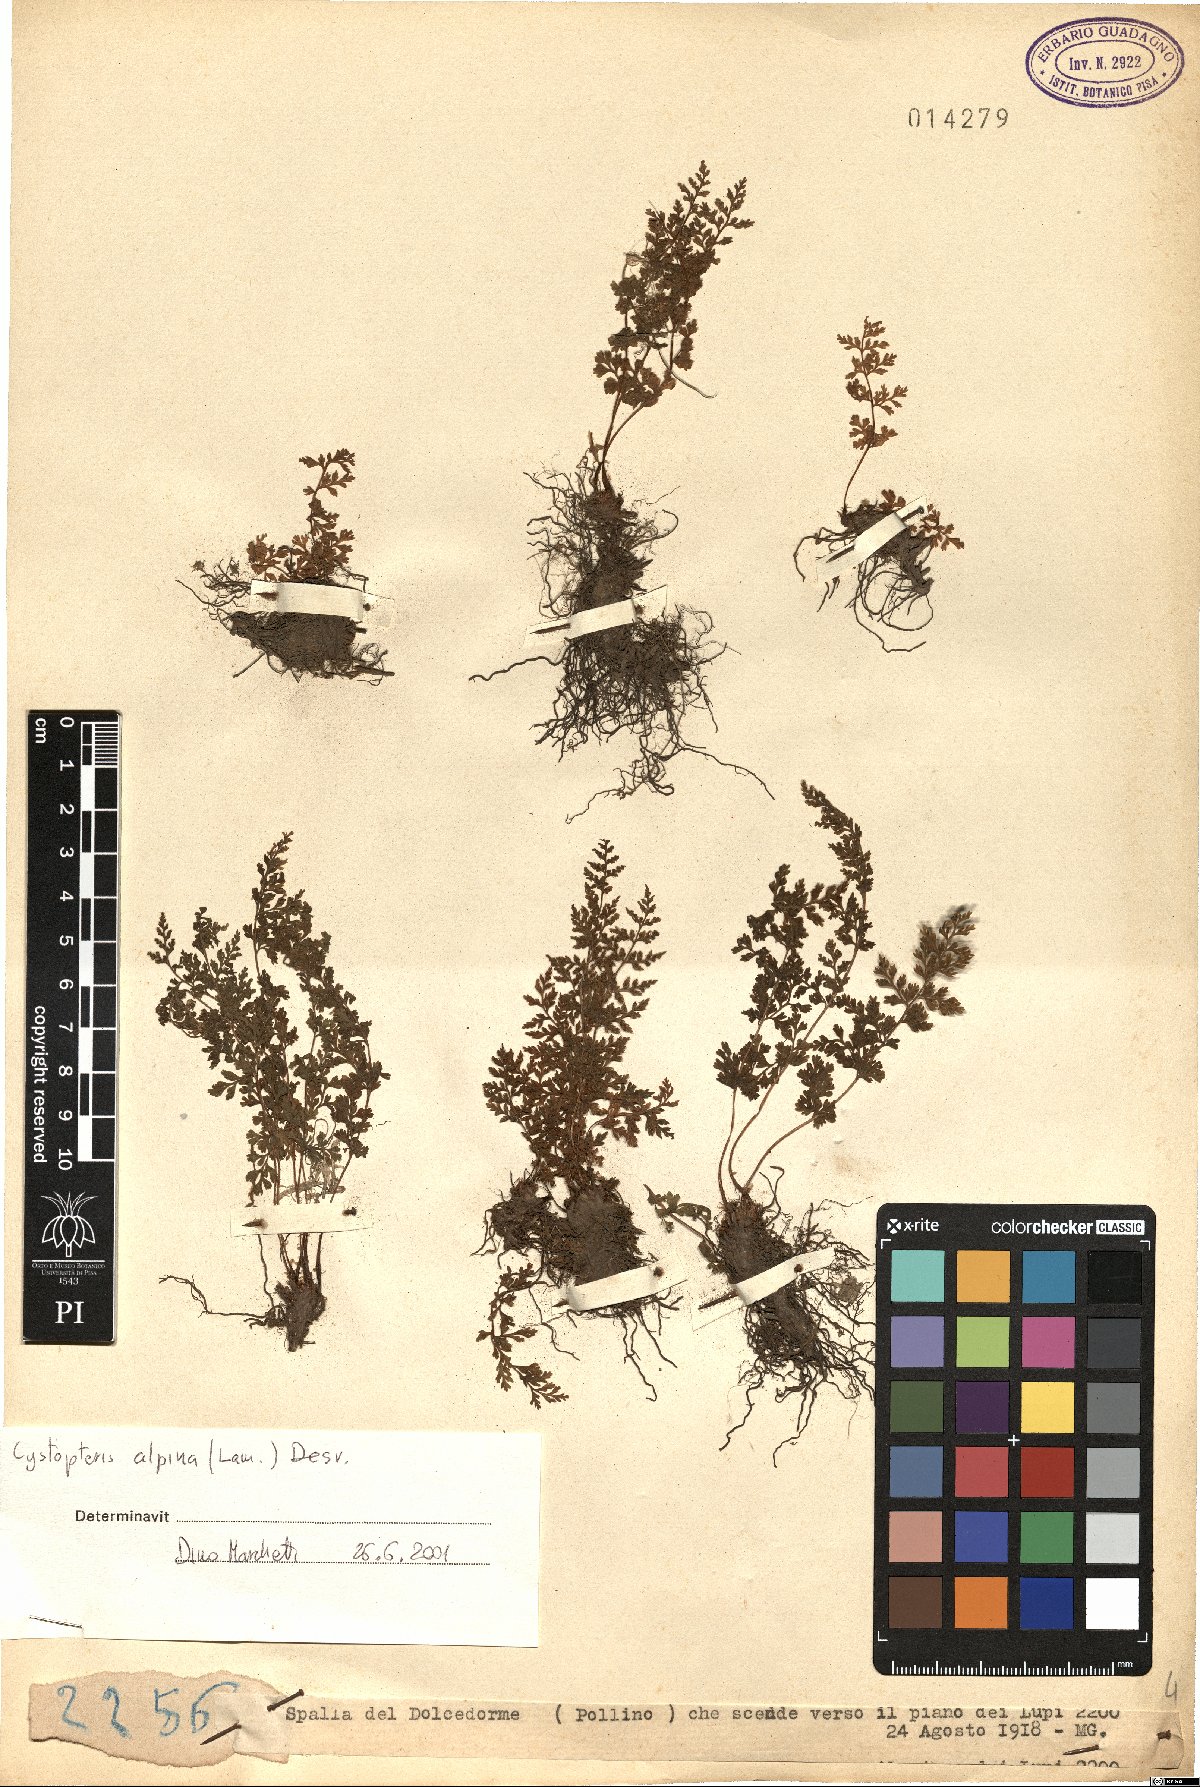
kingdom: Plantae
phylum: Tracheophyta
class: Polypodiopsida
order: Polypodiales
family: Cystopteridaceae
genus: Cystopteris
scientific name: Cystopteris alpina
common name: Alpine bladder-fern
